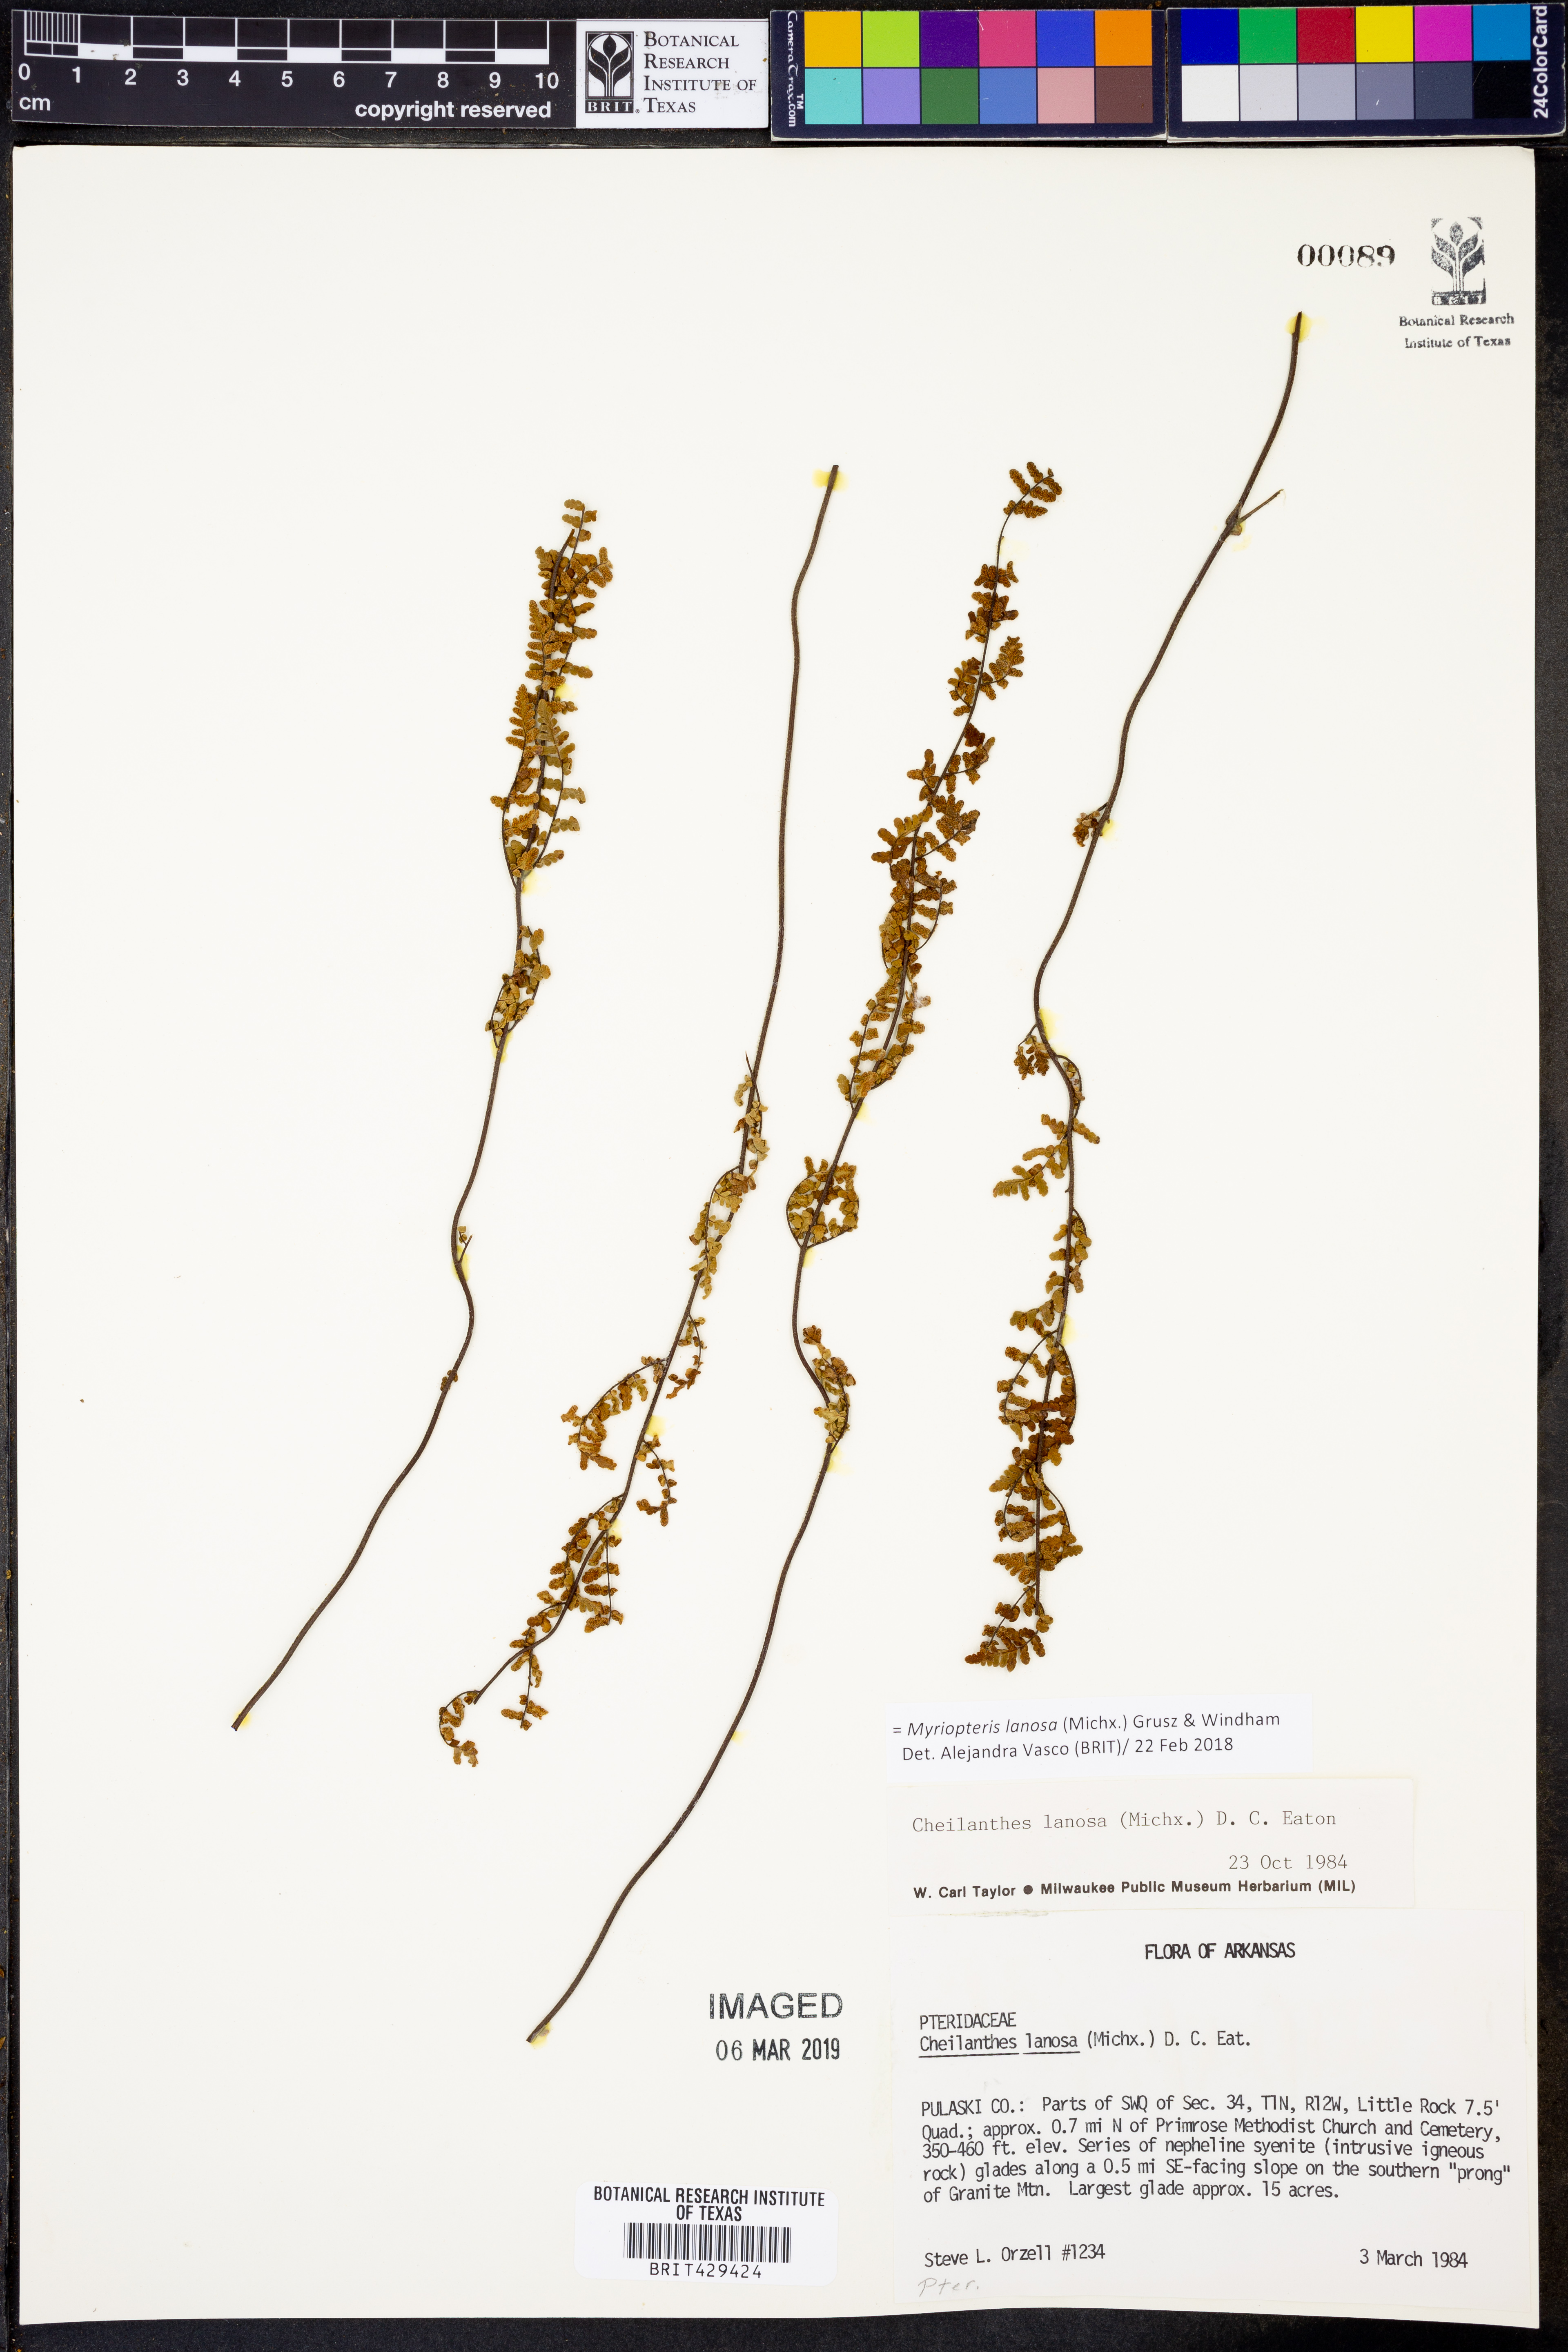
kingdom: Plantae
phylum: Tracheophyta
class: Polypodiopsida
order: Polypodiales
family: Pteridaceae
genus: Myriopteris
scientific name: Myriopteris lanosa
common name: Hairy lip fern
